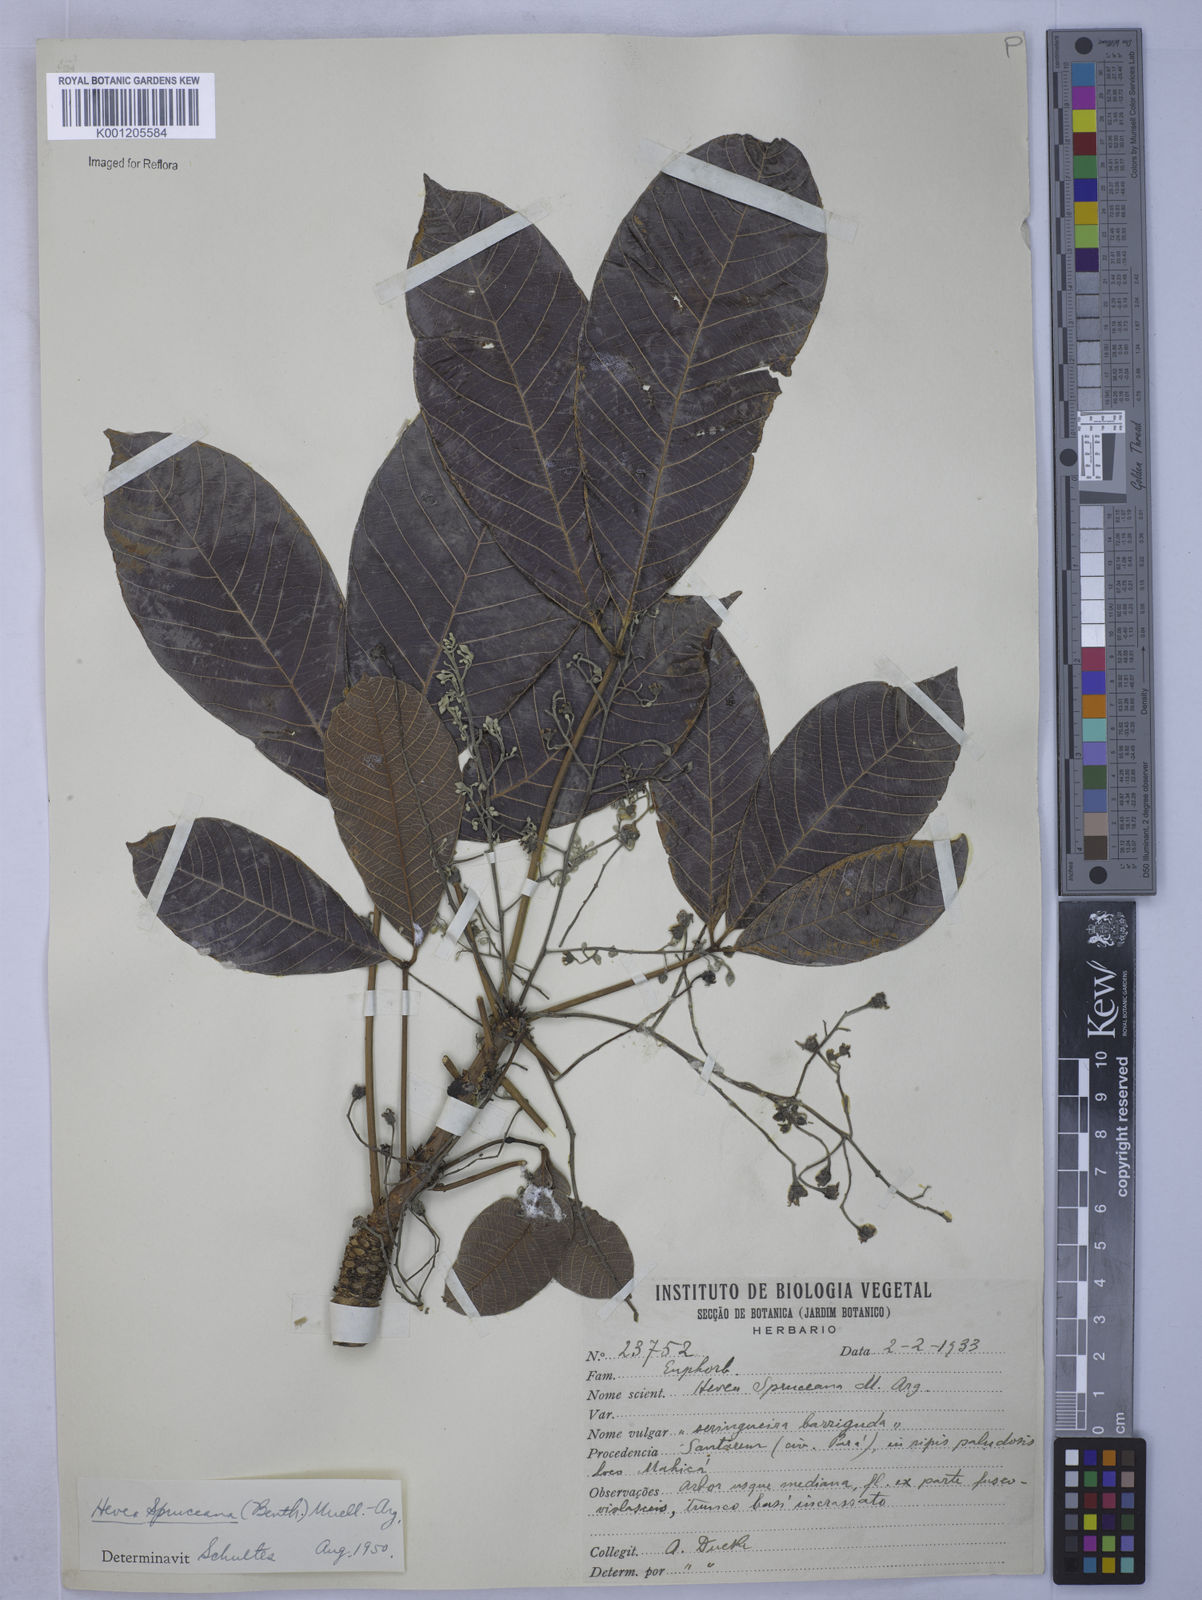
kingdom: Plantae
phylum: Tracheophyta
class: Magnoliopsida
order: Malpighiales
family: Euphorbiaceae
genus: Hevea
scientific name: Hevea
